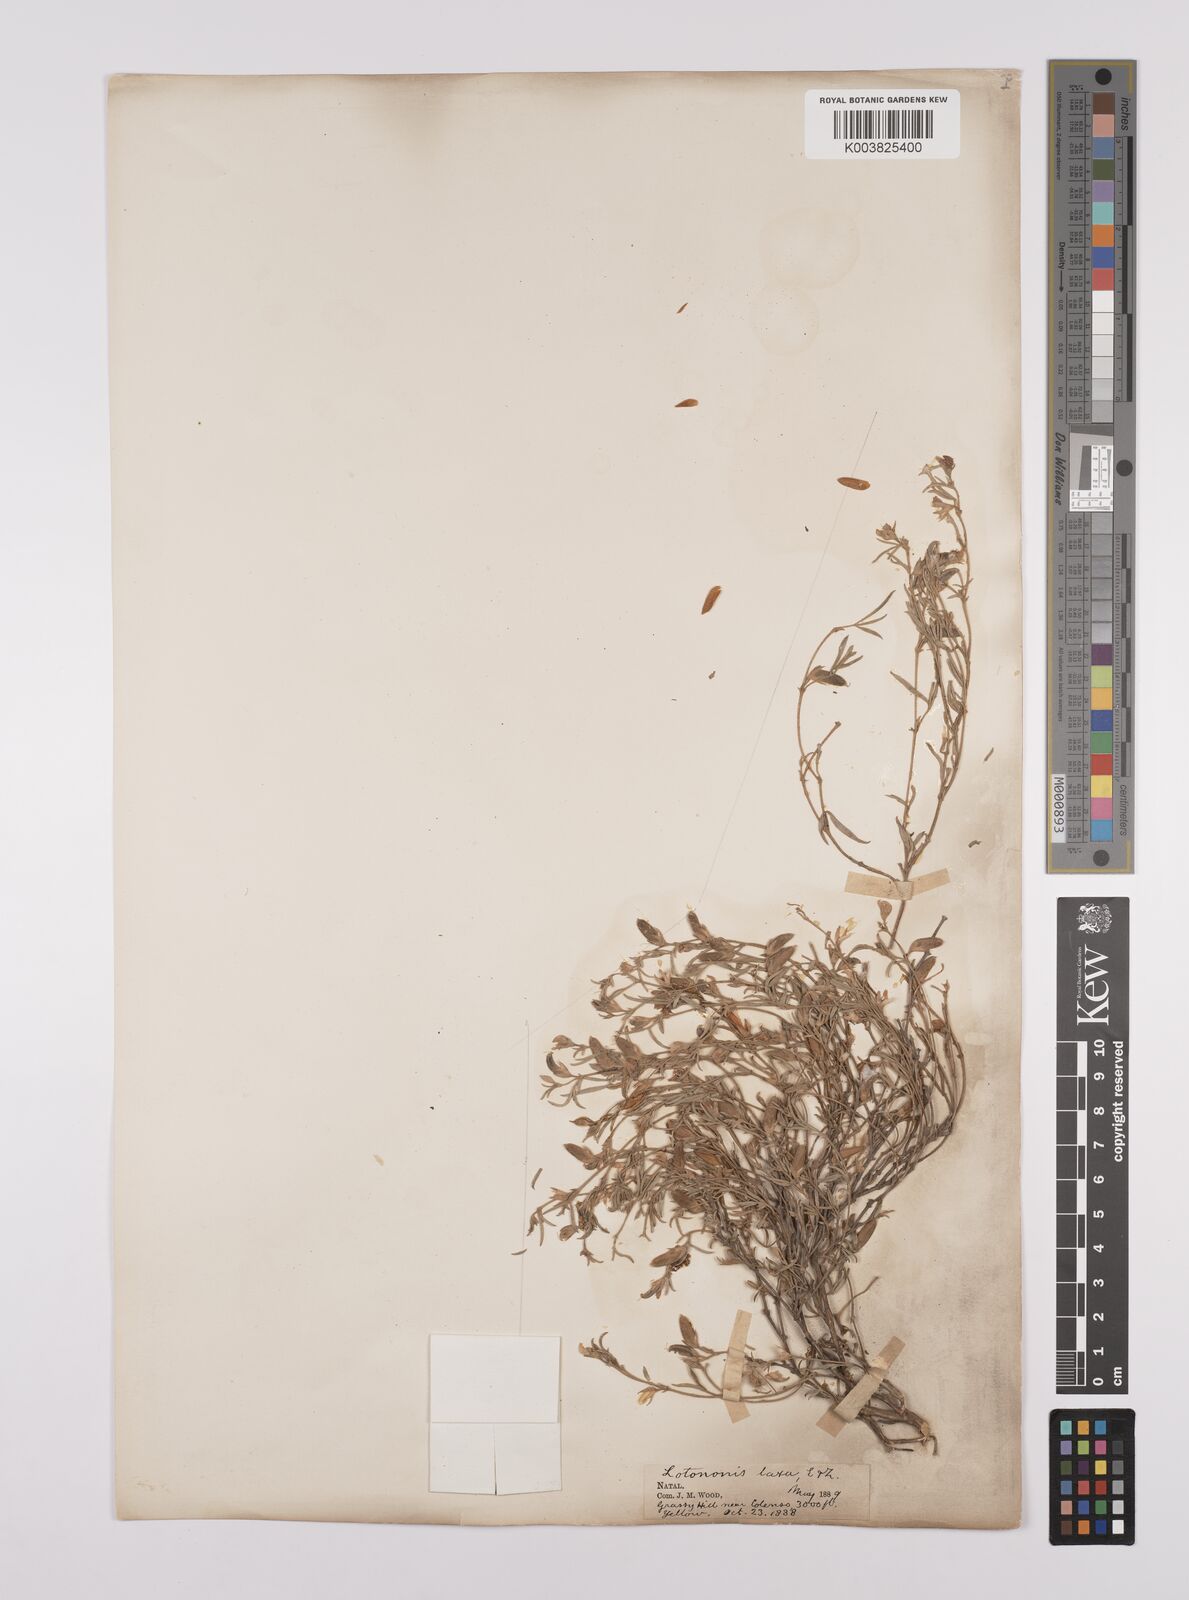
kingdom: Plantae
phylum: Tracheophyta
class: Magnoliopsida
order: Fabales
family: Fabaceae
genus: Lotononis
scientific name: Lotononis laxa
